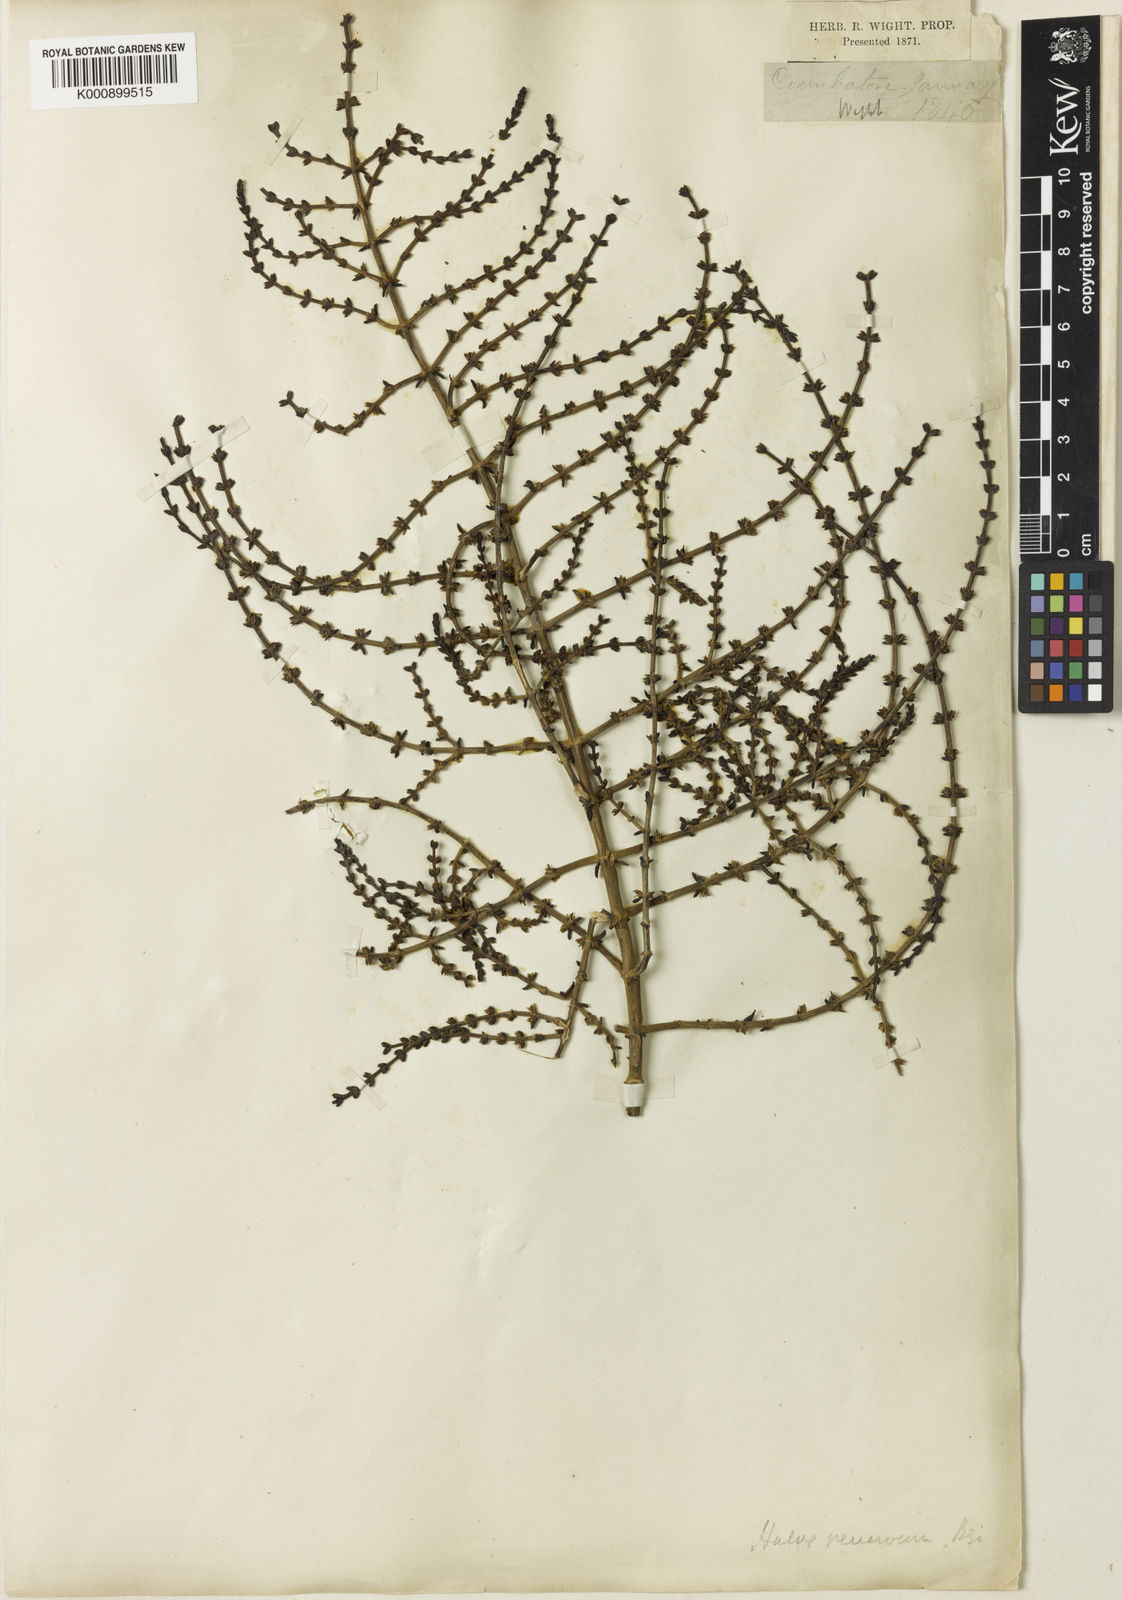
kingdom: Plantae
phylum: Tracheophyta
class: Magnoliopsida
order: Caryophyllales
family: Amaranthaceae
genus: Soda
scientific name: Soda stocksii
